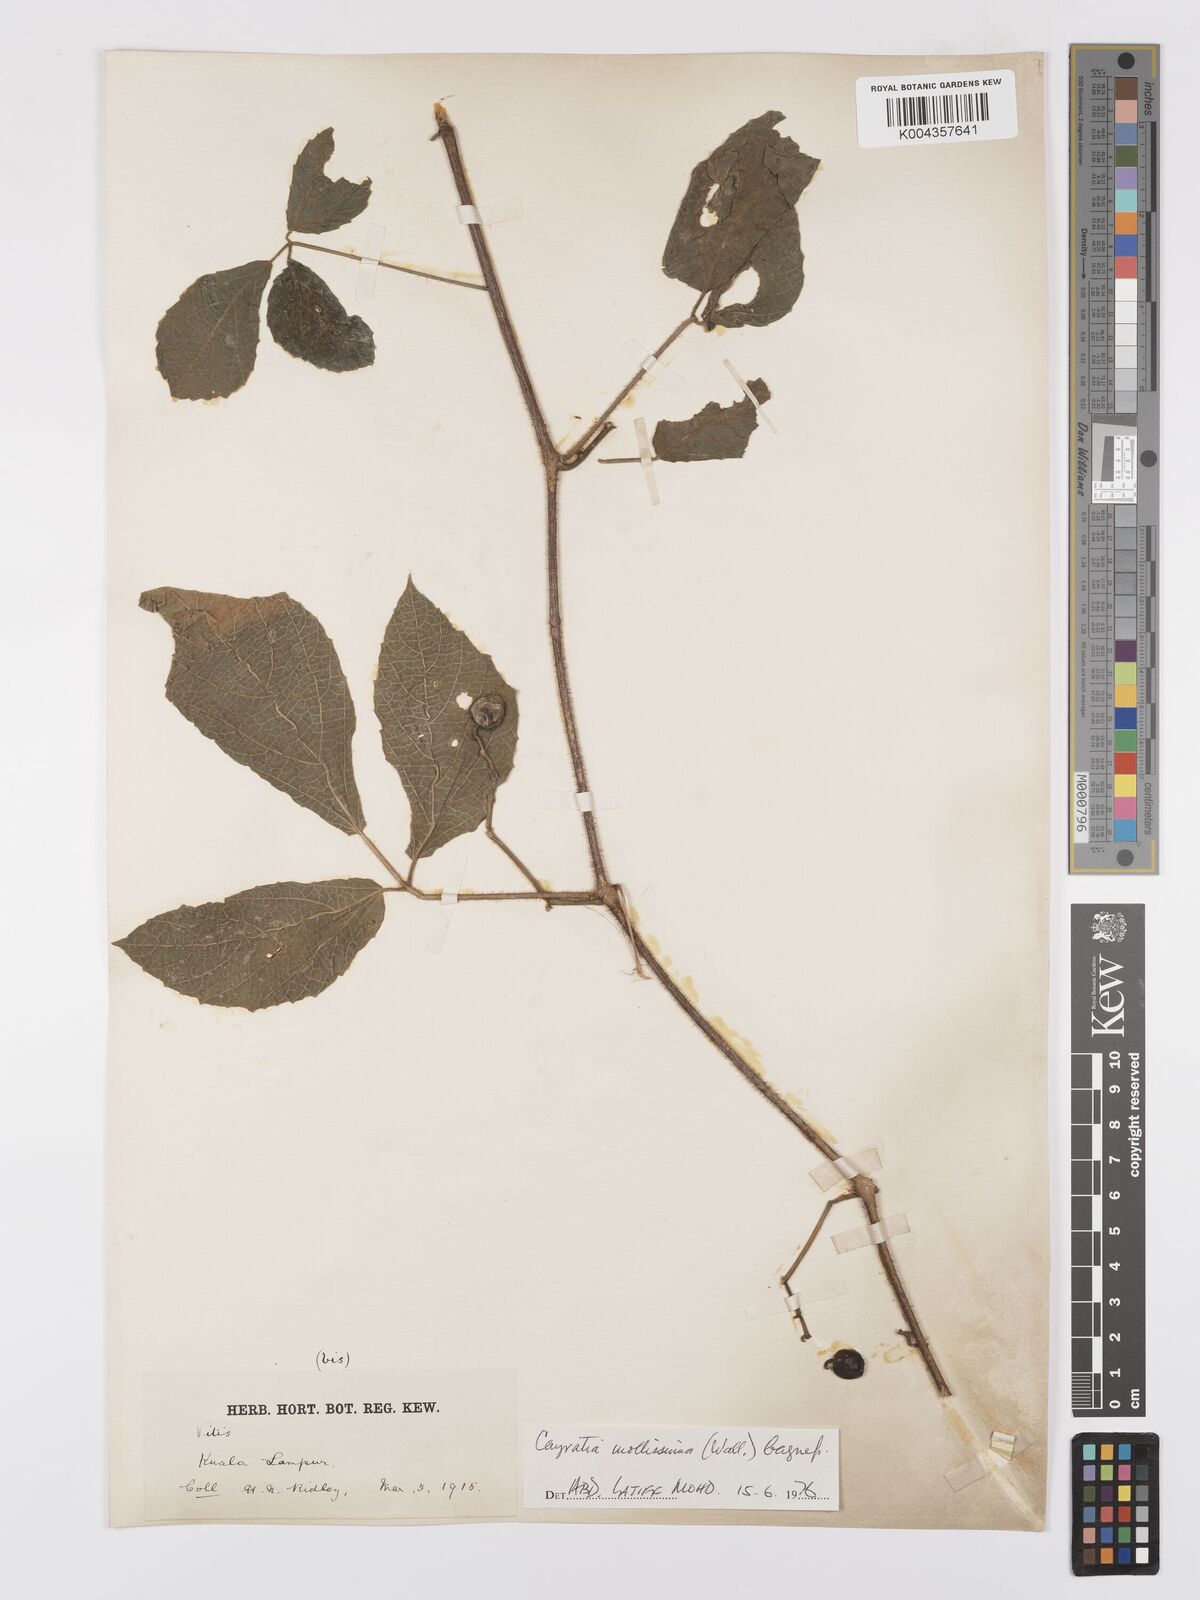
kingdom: Plantae
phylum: Tracheophyta
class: Magnoliopsida
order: Vitales
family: Vitaceae
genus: Cayratia
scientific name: Cayratia mollissima
